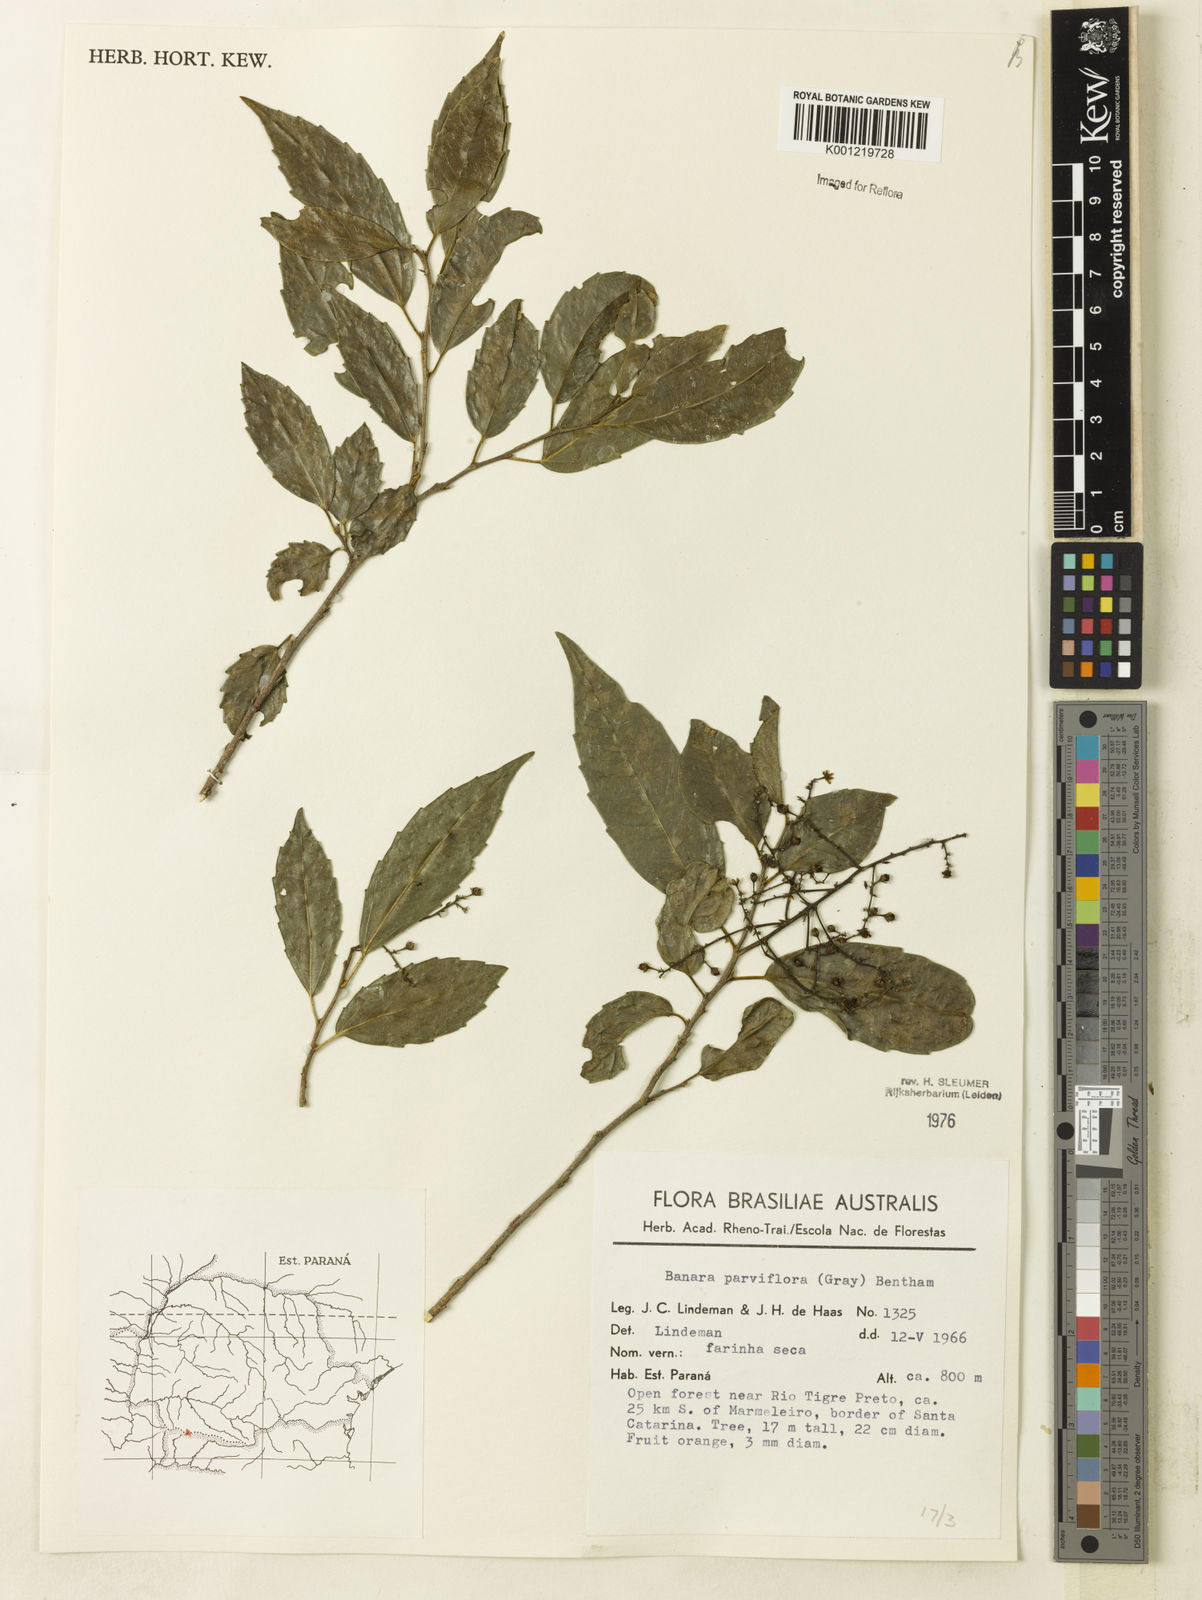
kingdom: Plantae
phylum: Tracheophyta
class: Magnoliopsida
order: Malpighiales
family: Salicaceae
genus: Banara
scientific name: Banara parviflora
